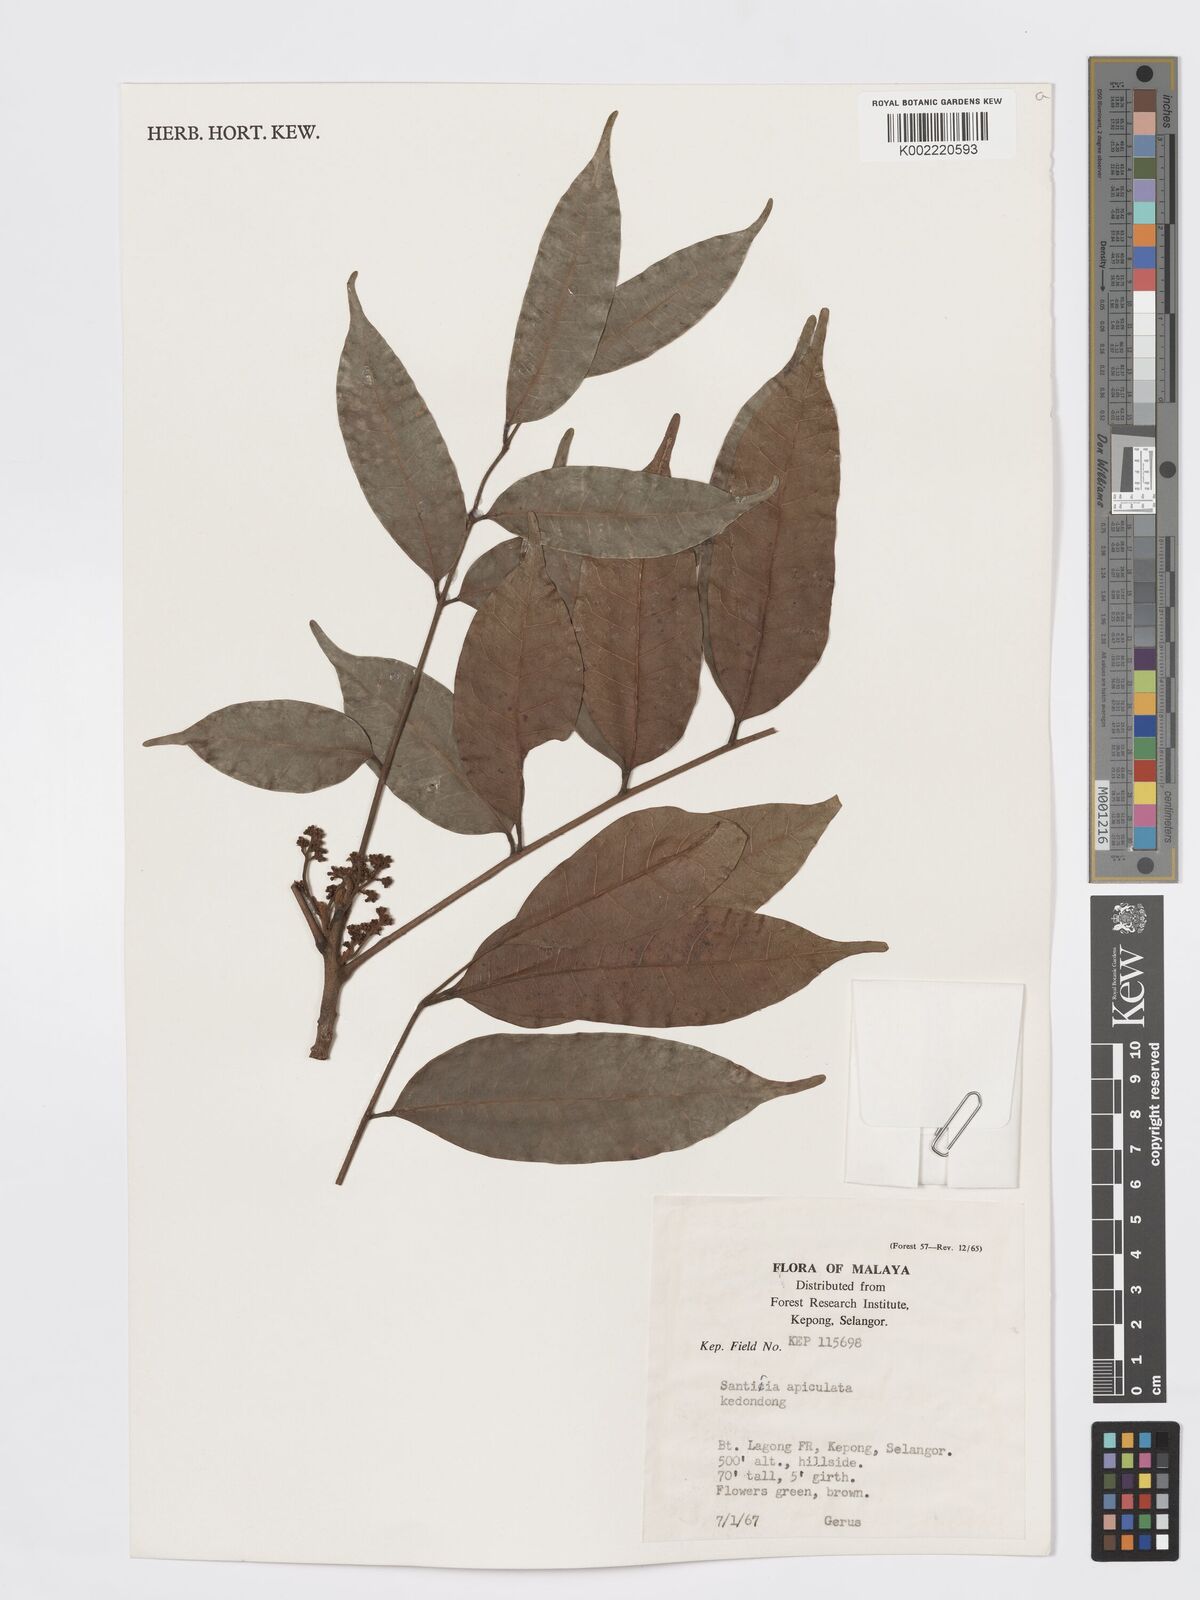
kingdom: Plantae
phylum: Tracheophyta
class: Magnoliopsida
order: Sapindales
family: Burseraceae
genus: Santiria
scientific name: Santiria apiculata
